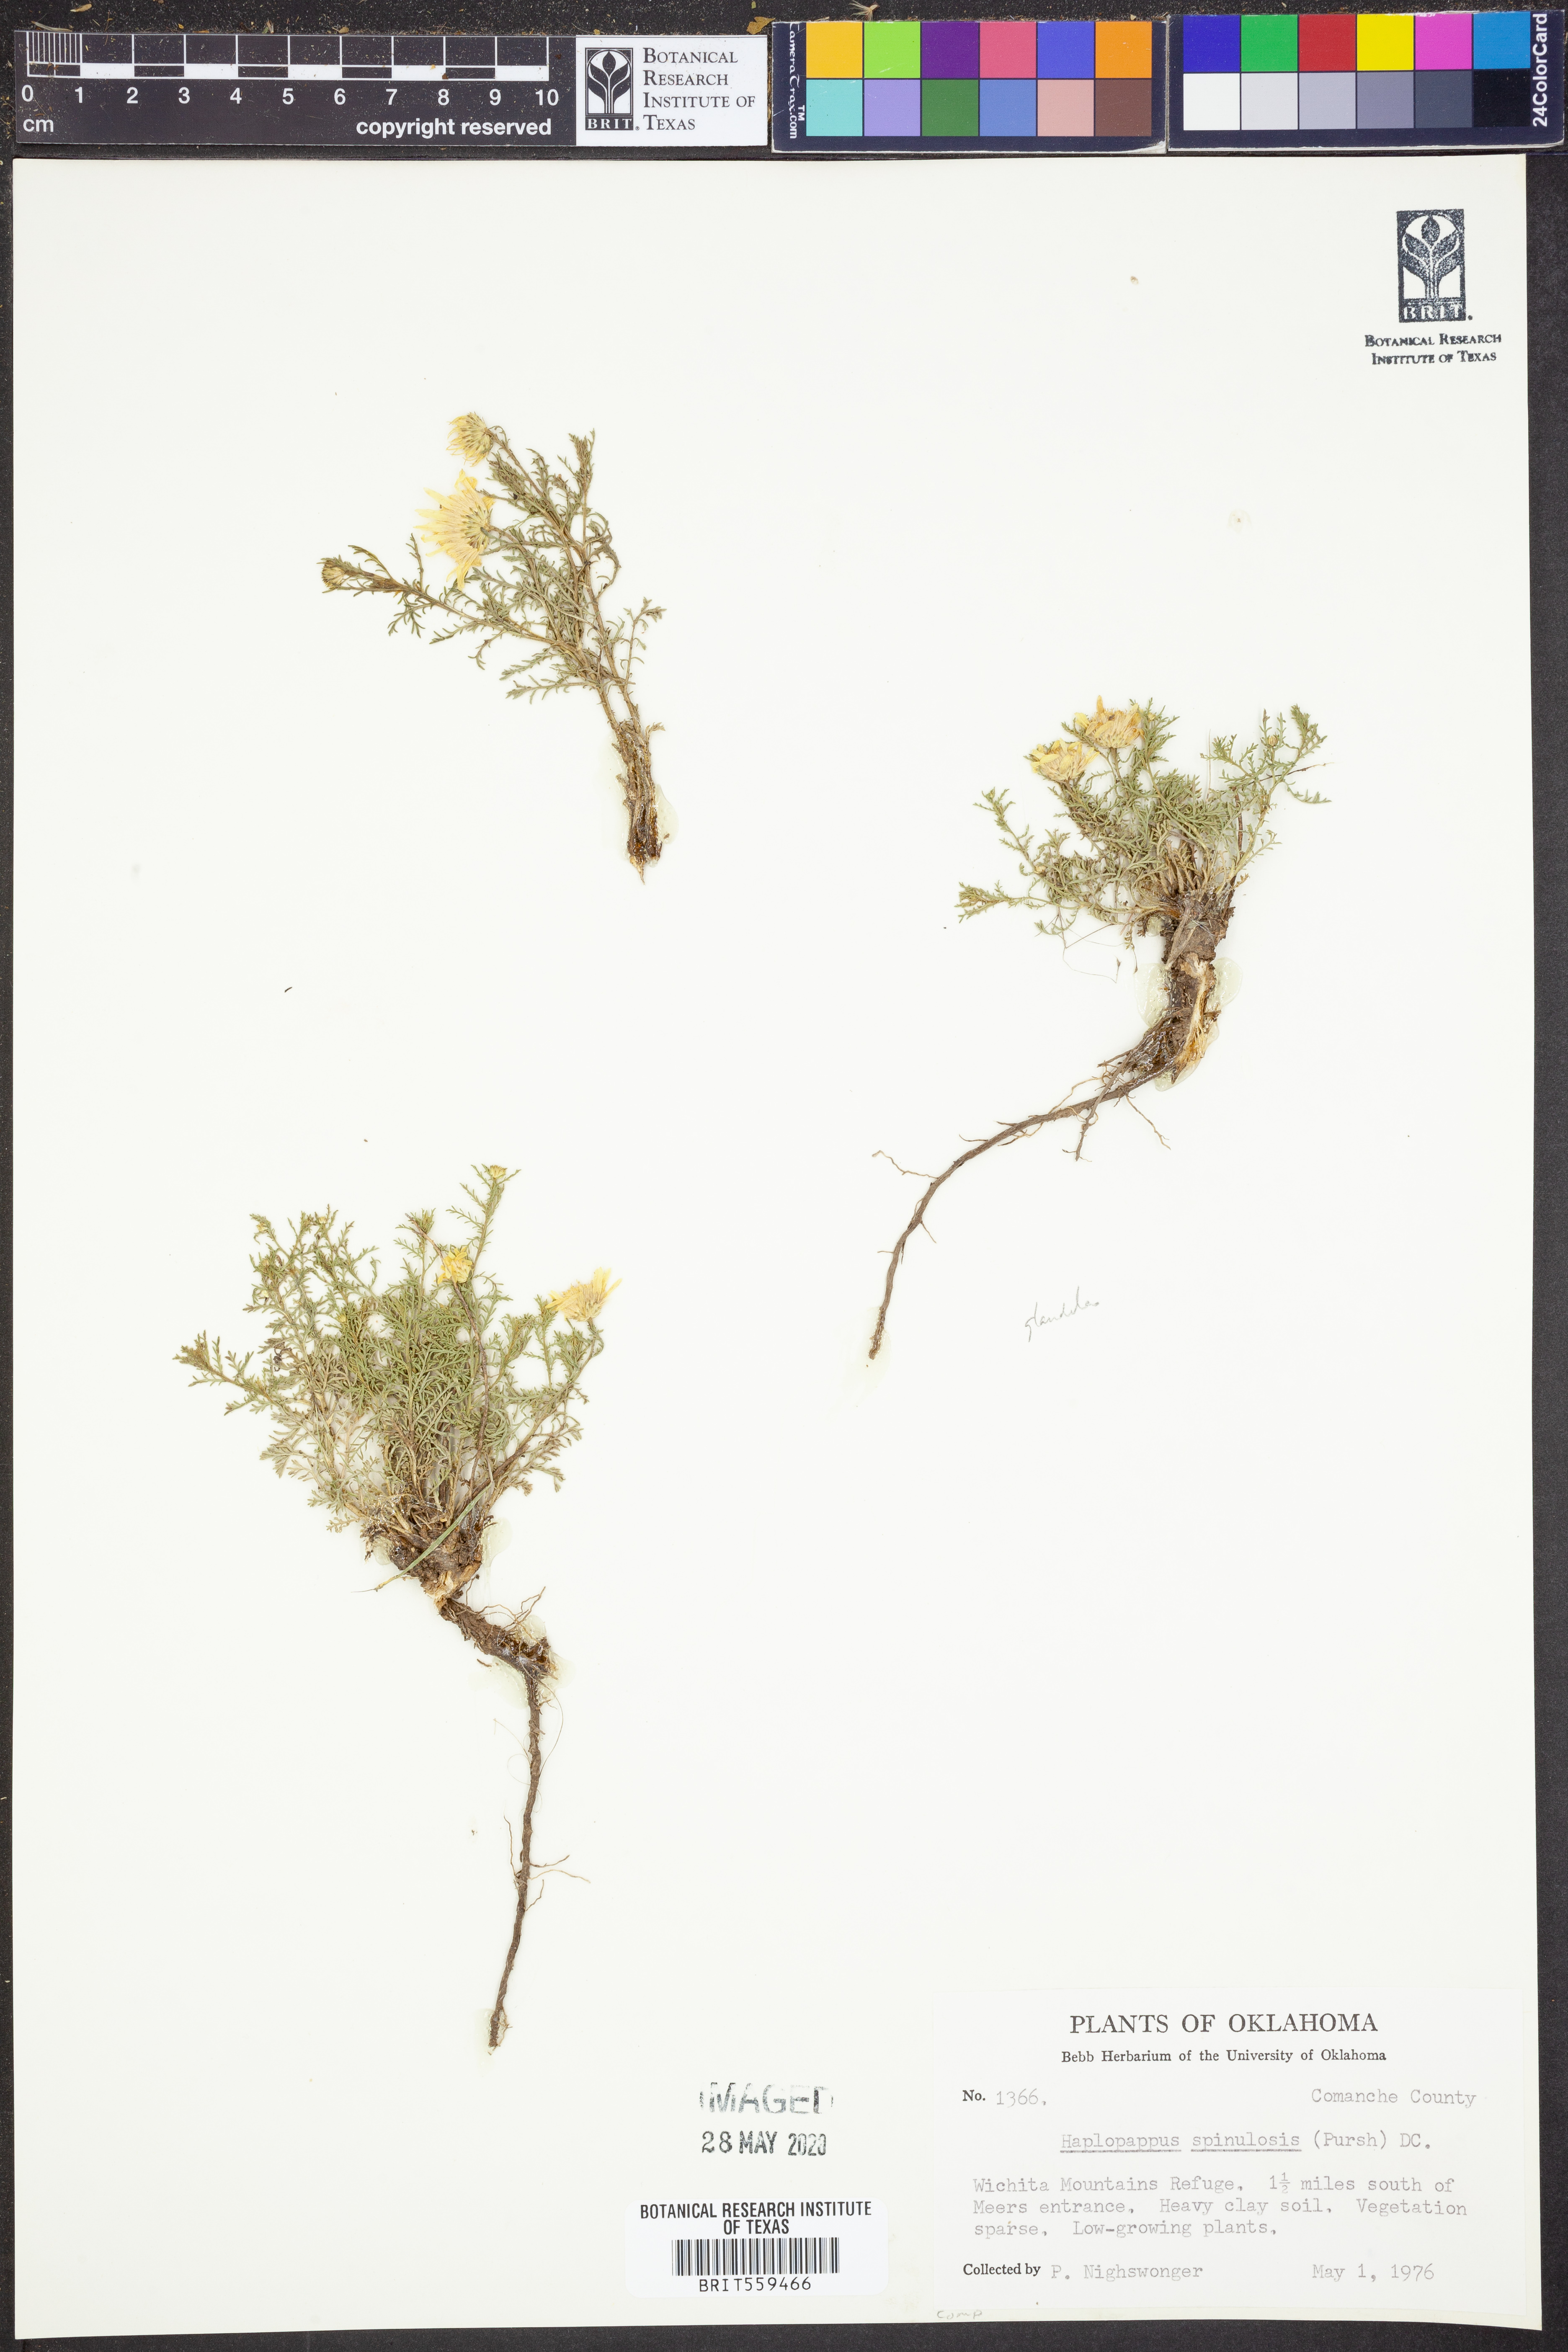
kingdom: Plantae
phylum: Tracheophyta
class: Magnoliopsida
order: Asterales
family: Asteraceae
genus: Xanthisma
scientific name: Xanthisma spinulosum
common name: Spiny goldenweed
